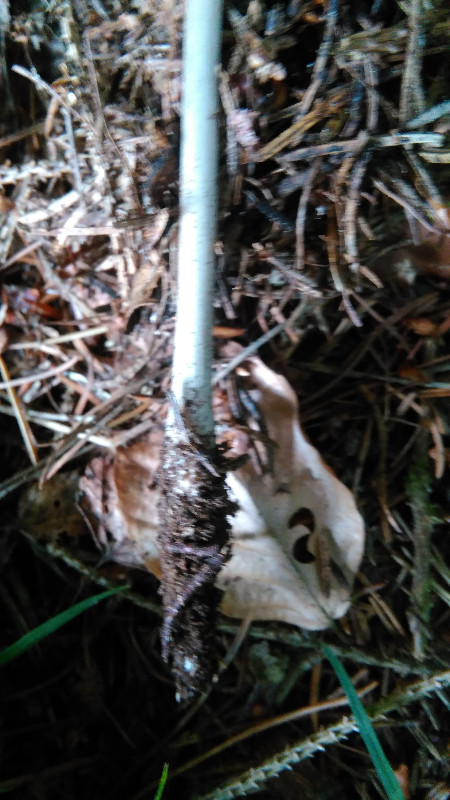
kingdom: Fungi
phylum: Basidiomycota
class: Agaricomycetes
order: Agaricales
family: Physalacriaceae
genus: Hymenopellis
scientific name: Hymenopellis radicata
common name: almindelig pælerodshat
